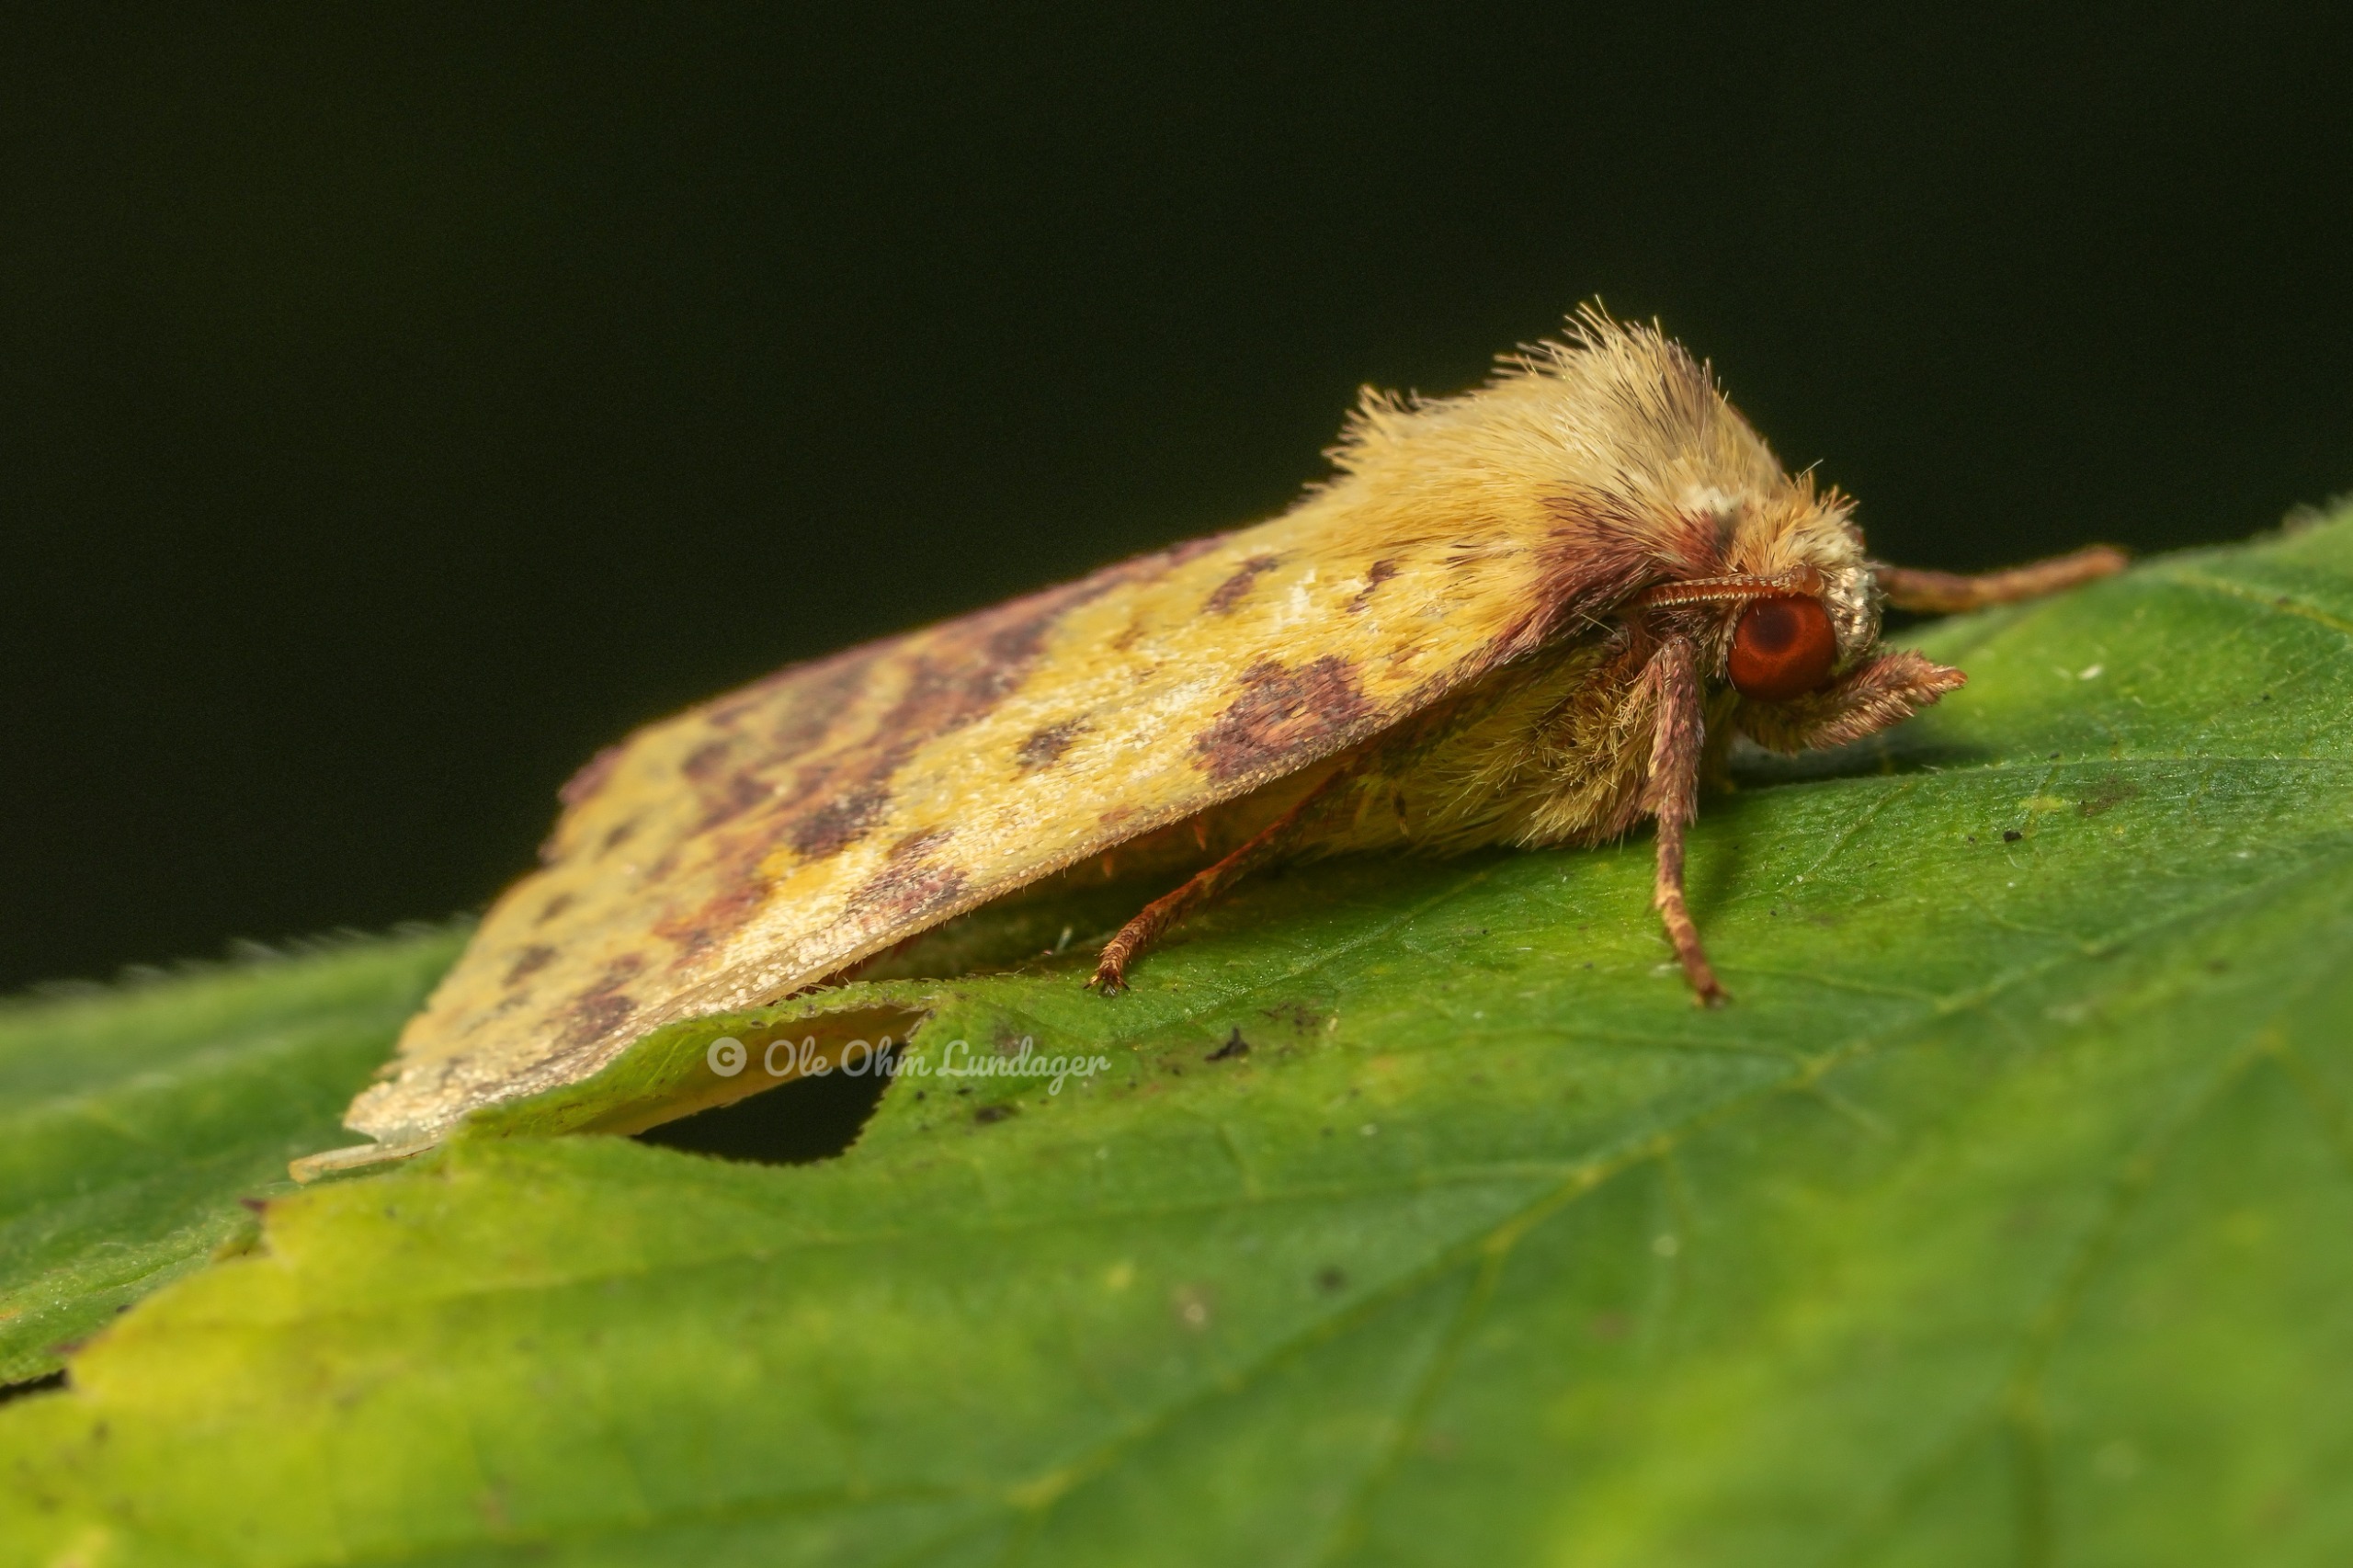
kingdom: Animalia
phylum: Arthropoda
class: Insecta
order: Lepidoptera
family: Noctuidae
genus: Xanthia
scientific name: Xanthia togata
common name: Toga-septemberugle
